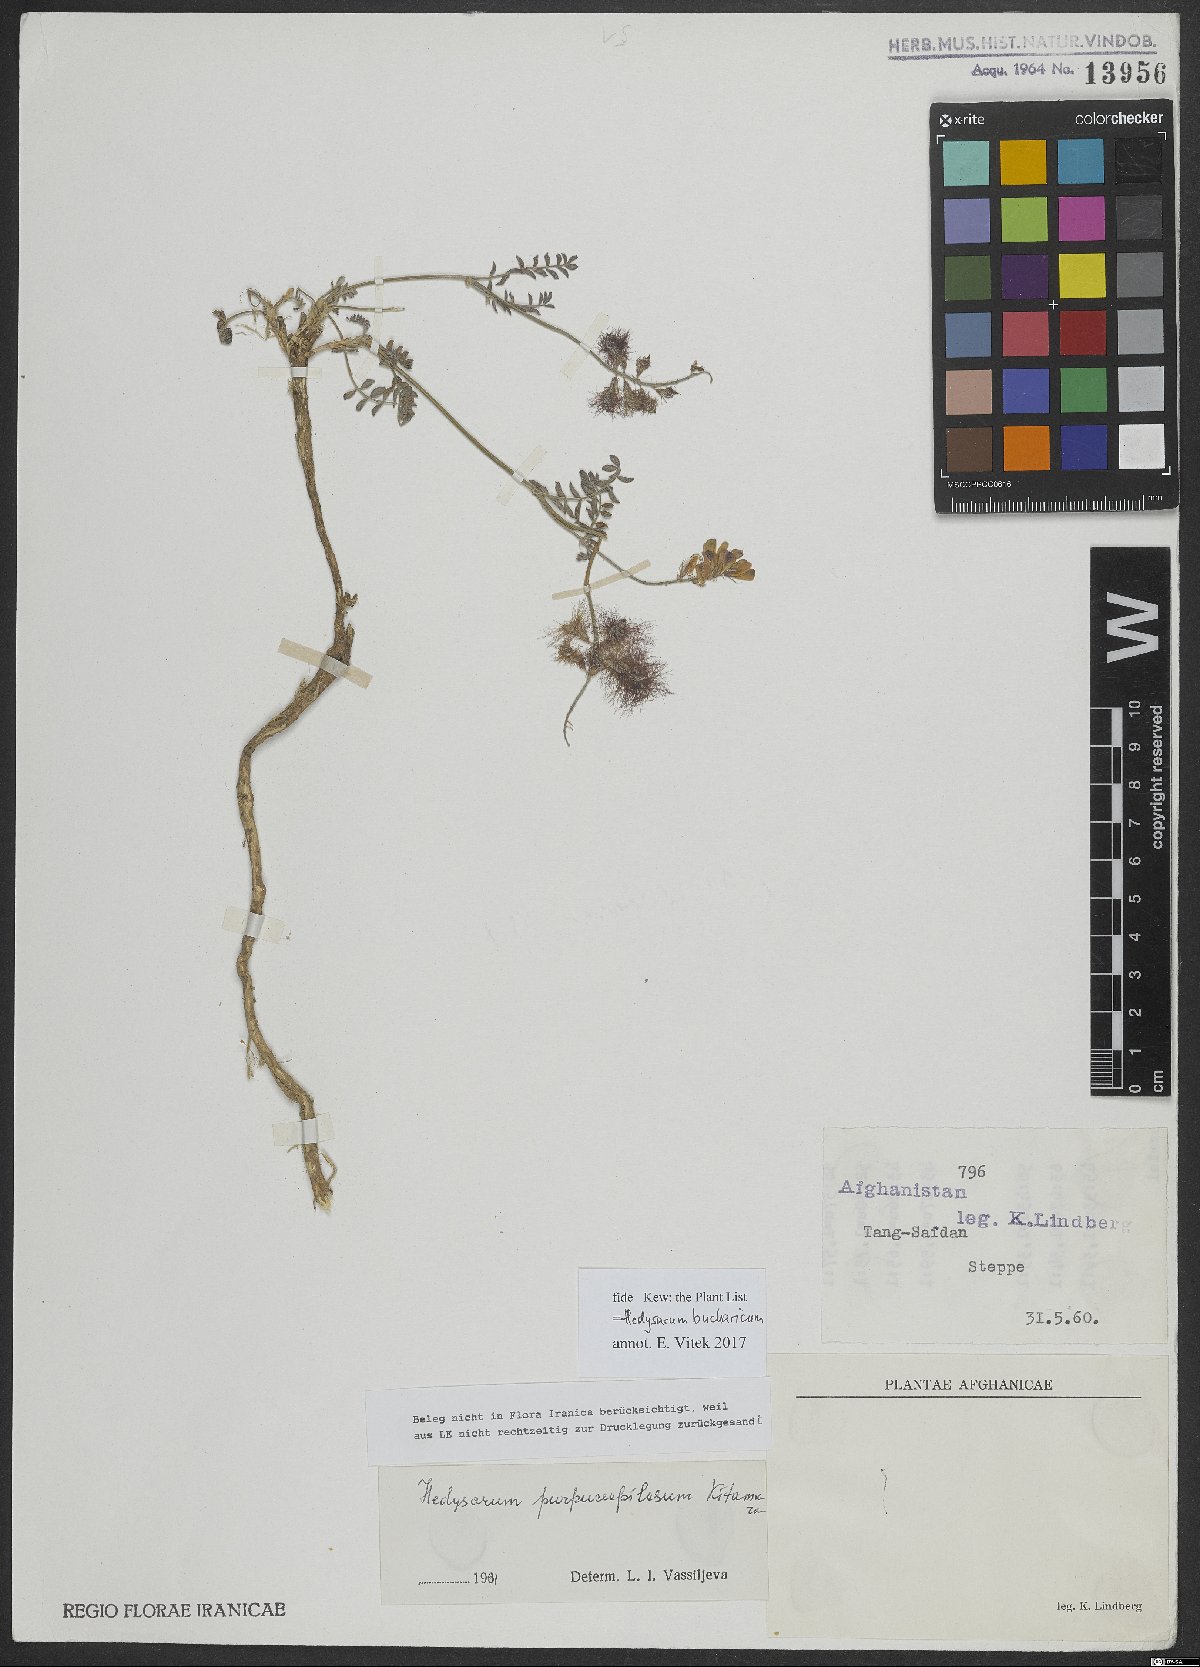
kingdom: Plantae
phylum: Tracheophyta
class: Magnoliopsida
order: Fabales
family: Fabaceae
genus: Hedysarum
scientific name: Hedysarum bucharicum
